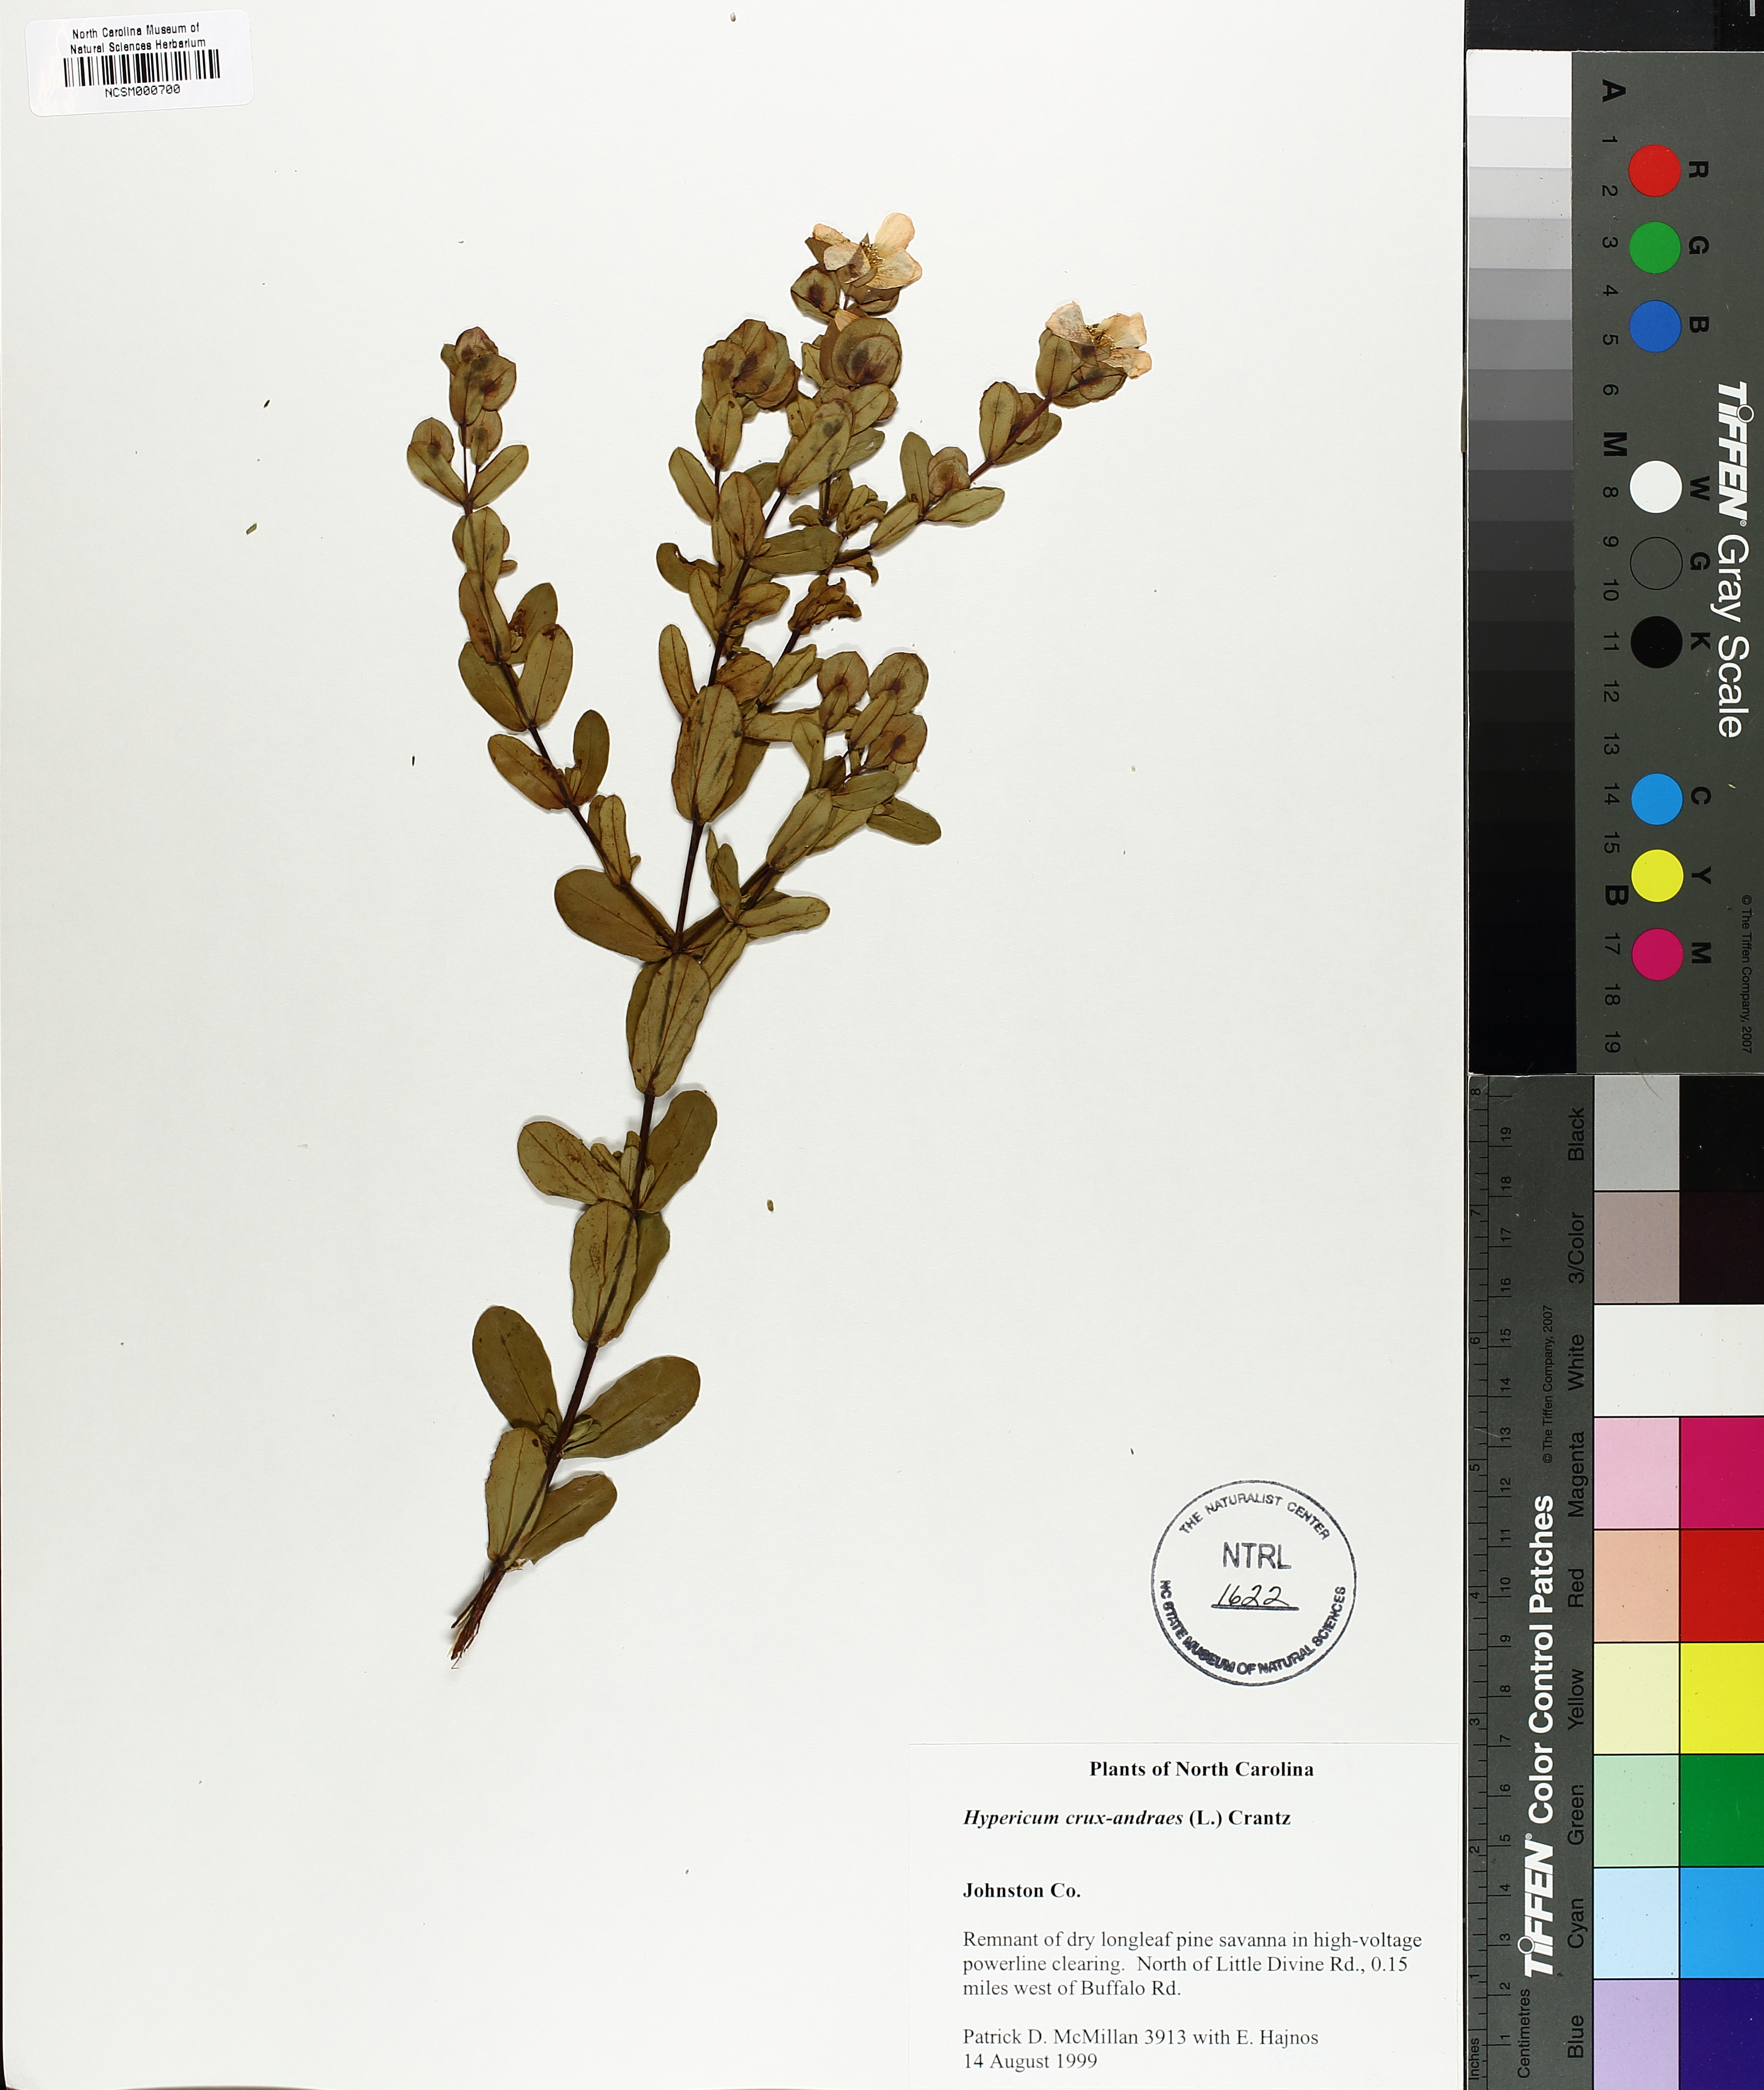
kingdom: Plantae
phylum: Tracheophyta
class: Magnoliopsida
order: Malpighiales
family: Hypericaceae
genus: Hypericum
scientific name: Hypericum crux-andreae
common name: St.-peter's-wort
